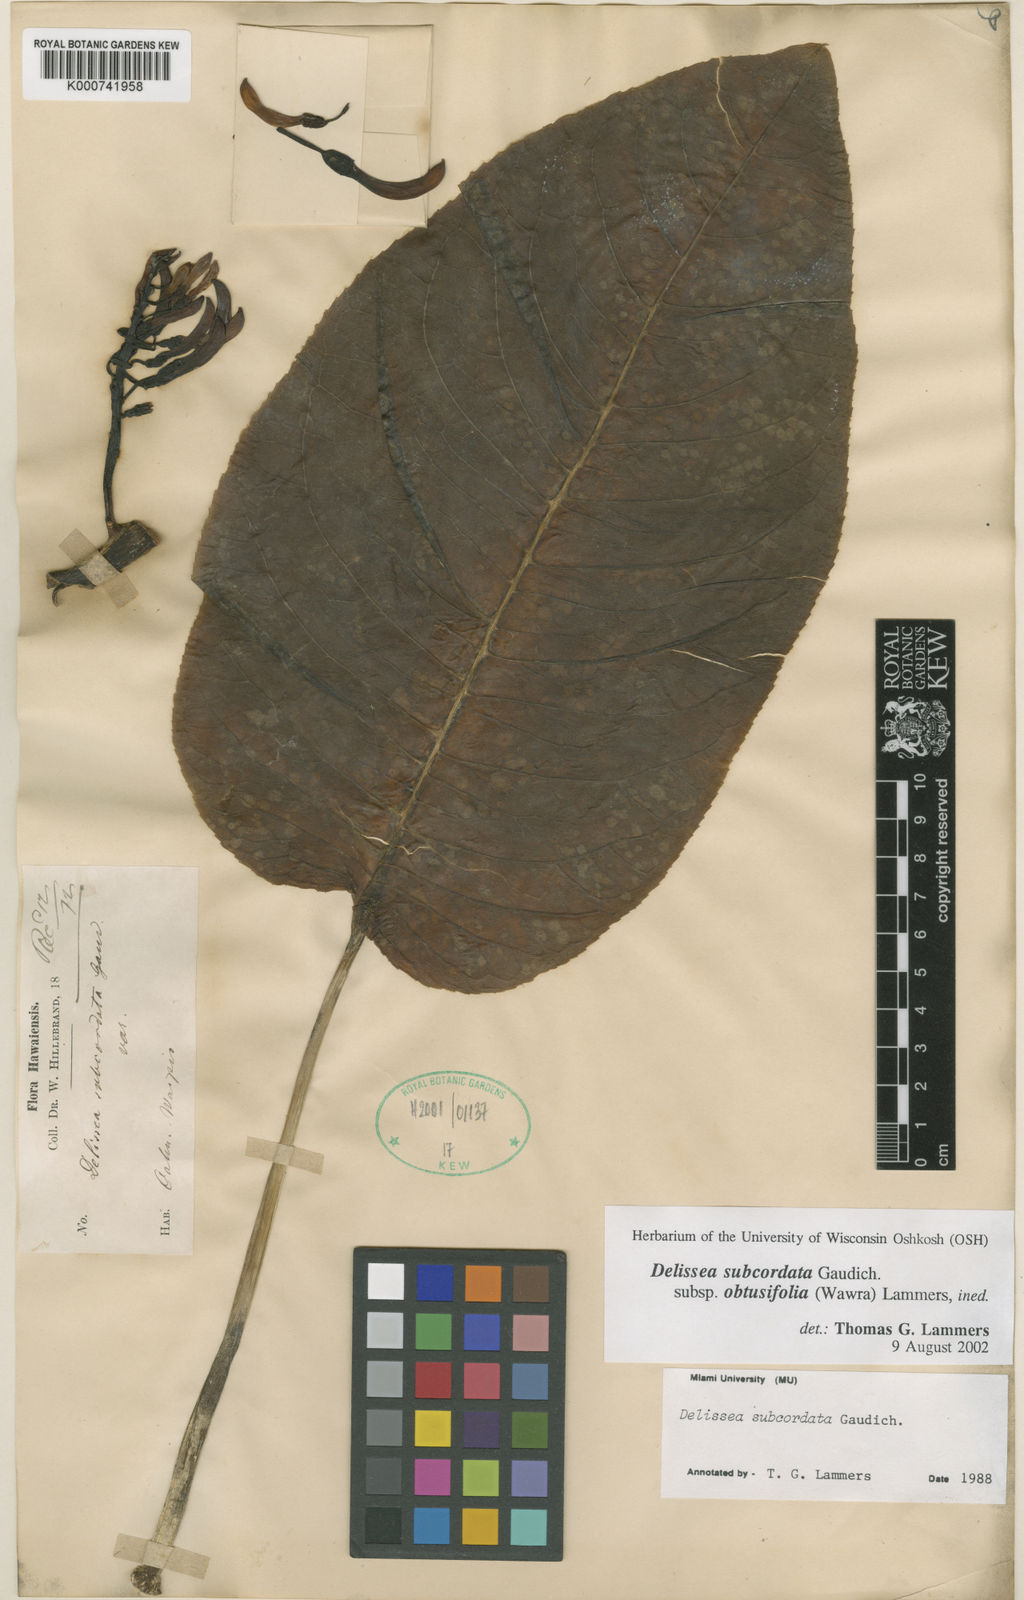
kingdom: Plantae
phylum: Tracheophyta
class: Magnoliopsida
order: Asterales
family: Campanulaceae
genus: Delissea
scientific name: Delissea subcordata
